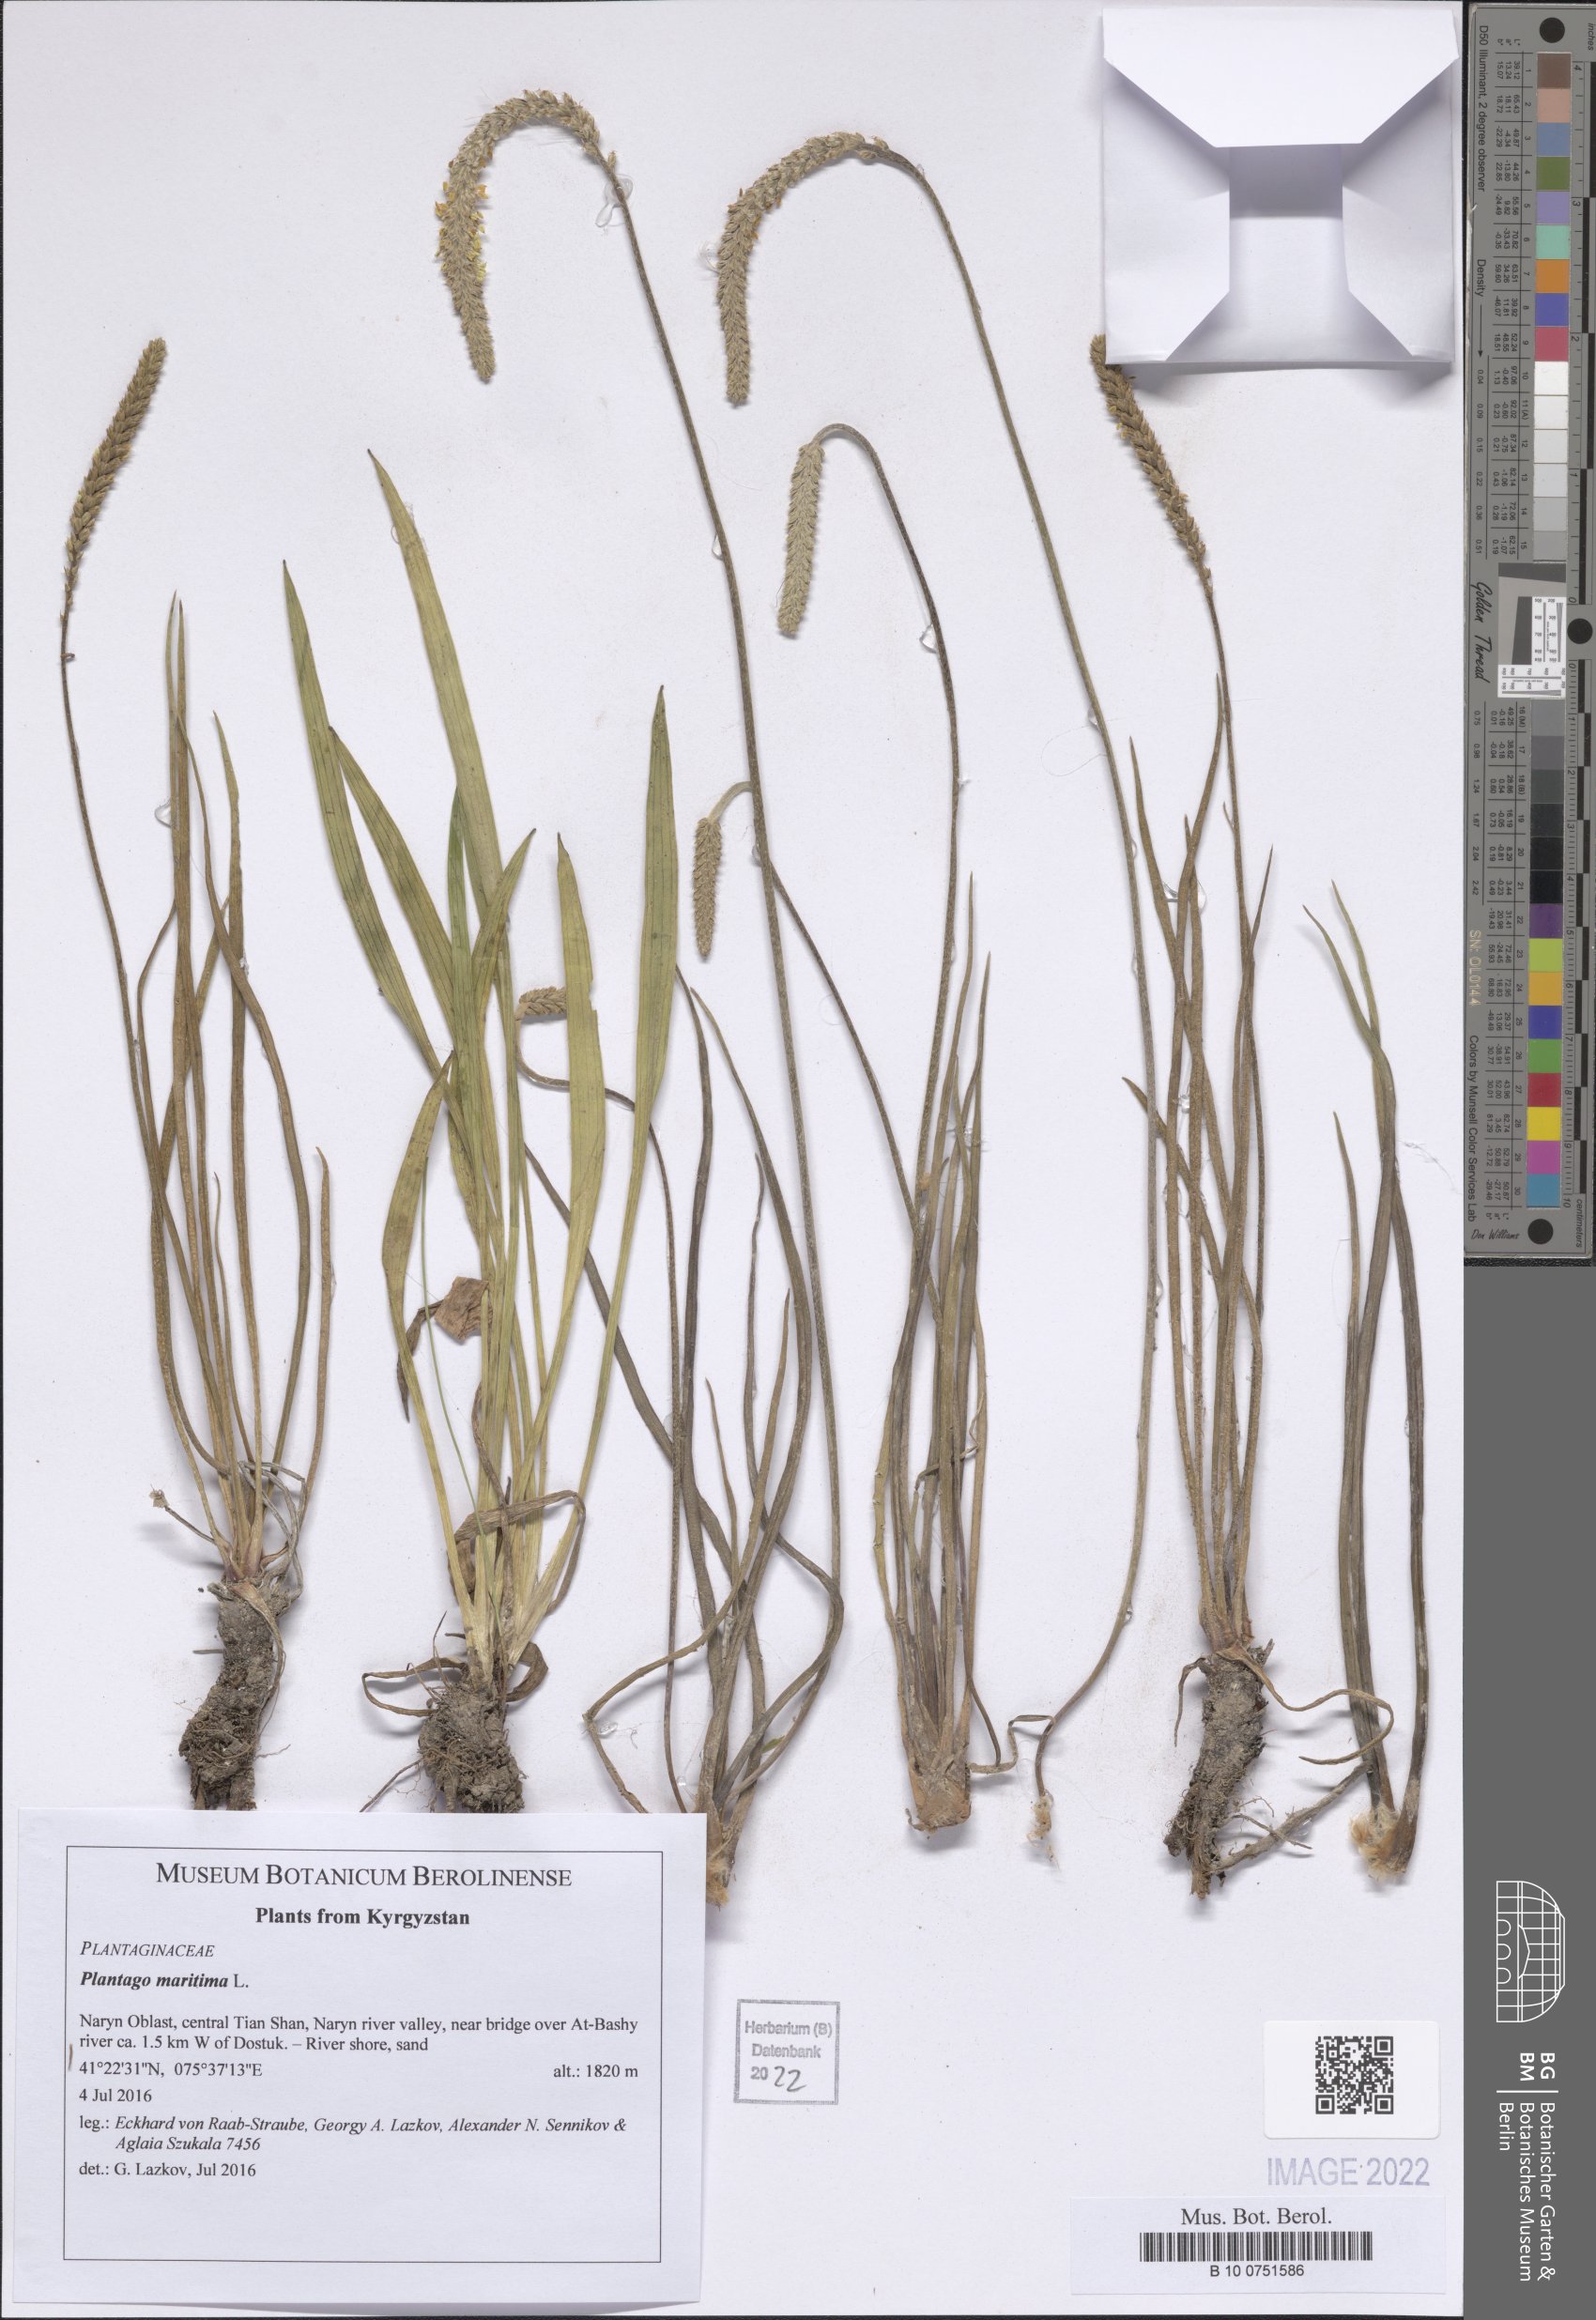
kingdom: Plantae
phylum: Tracheophyta
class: Magnoliopsida
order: Lamiales
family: Plantaginaceae
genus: Plantago
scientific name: Plantago maritima
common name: Sea plantain
